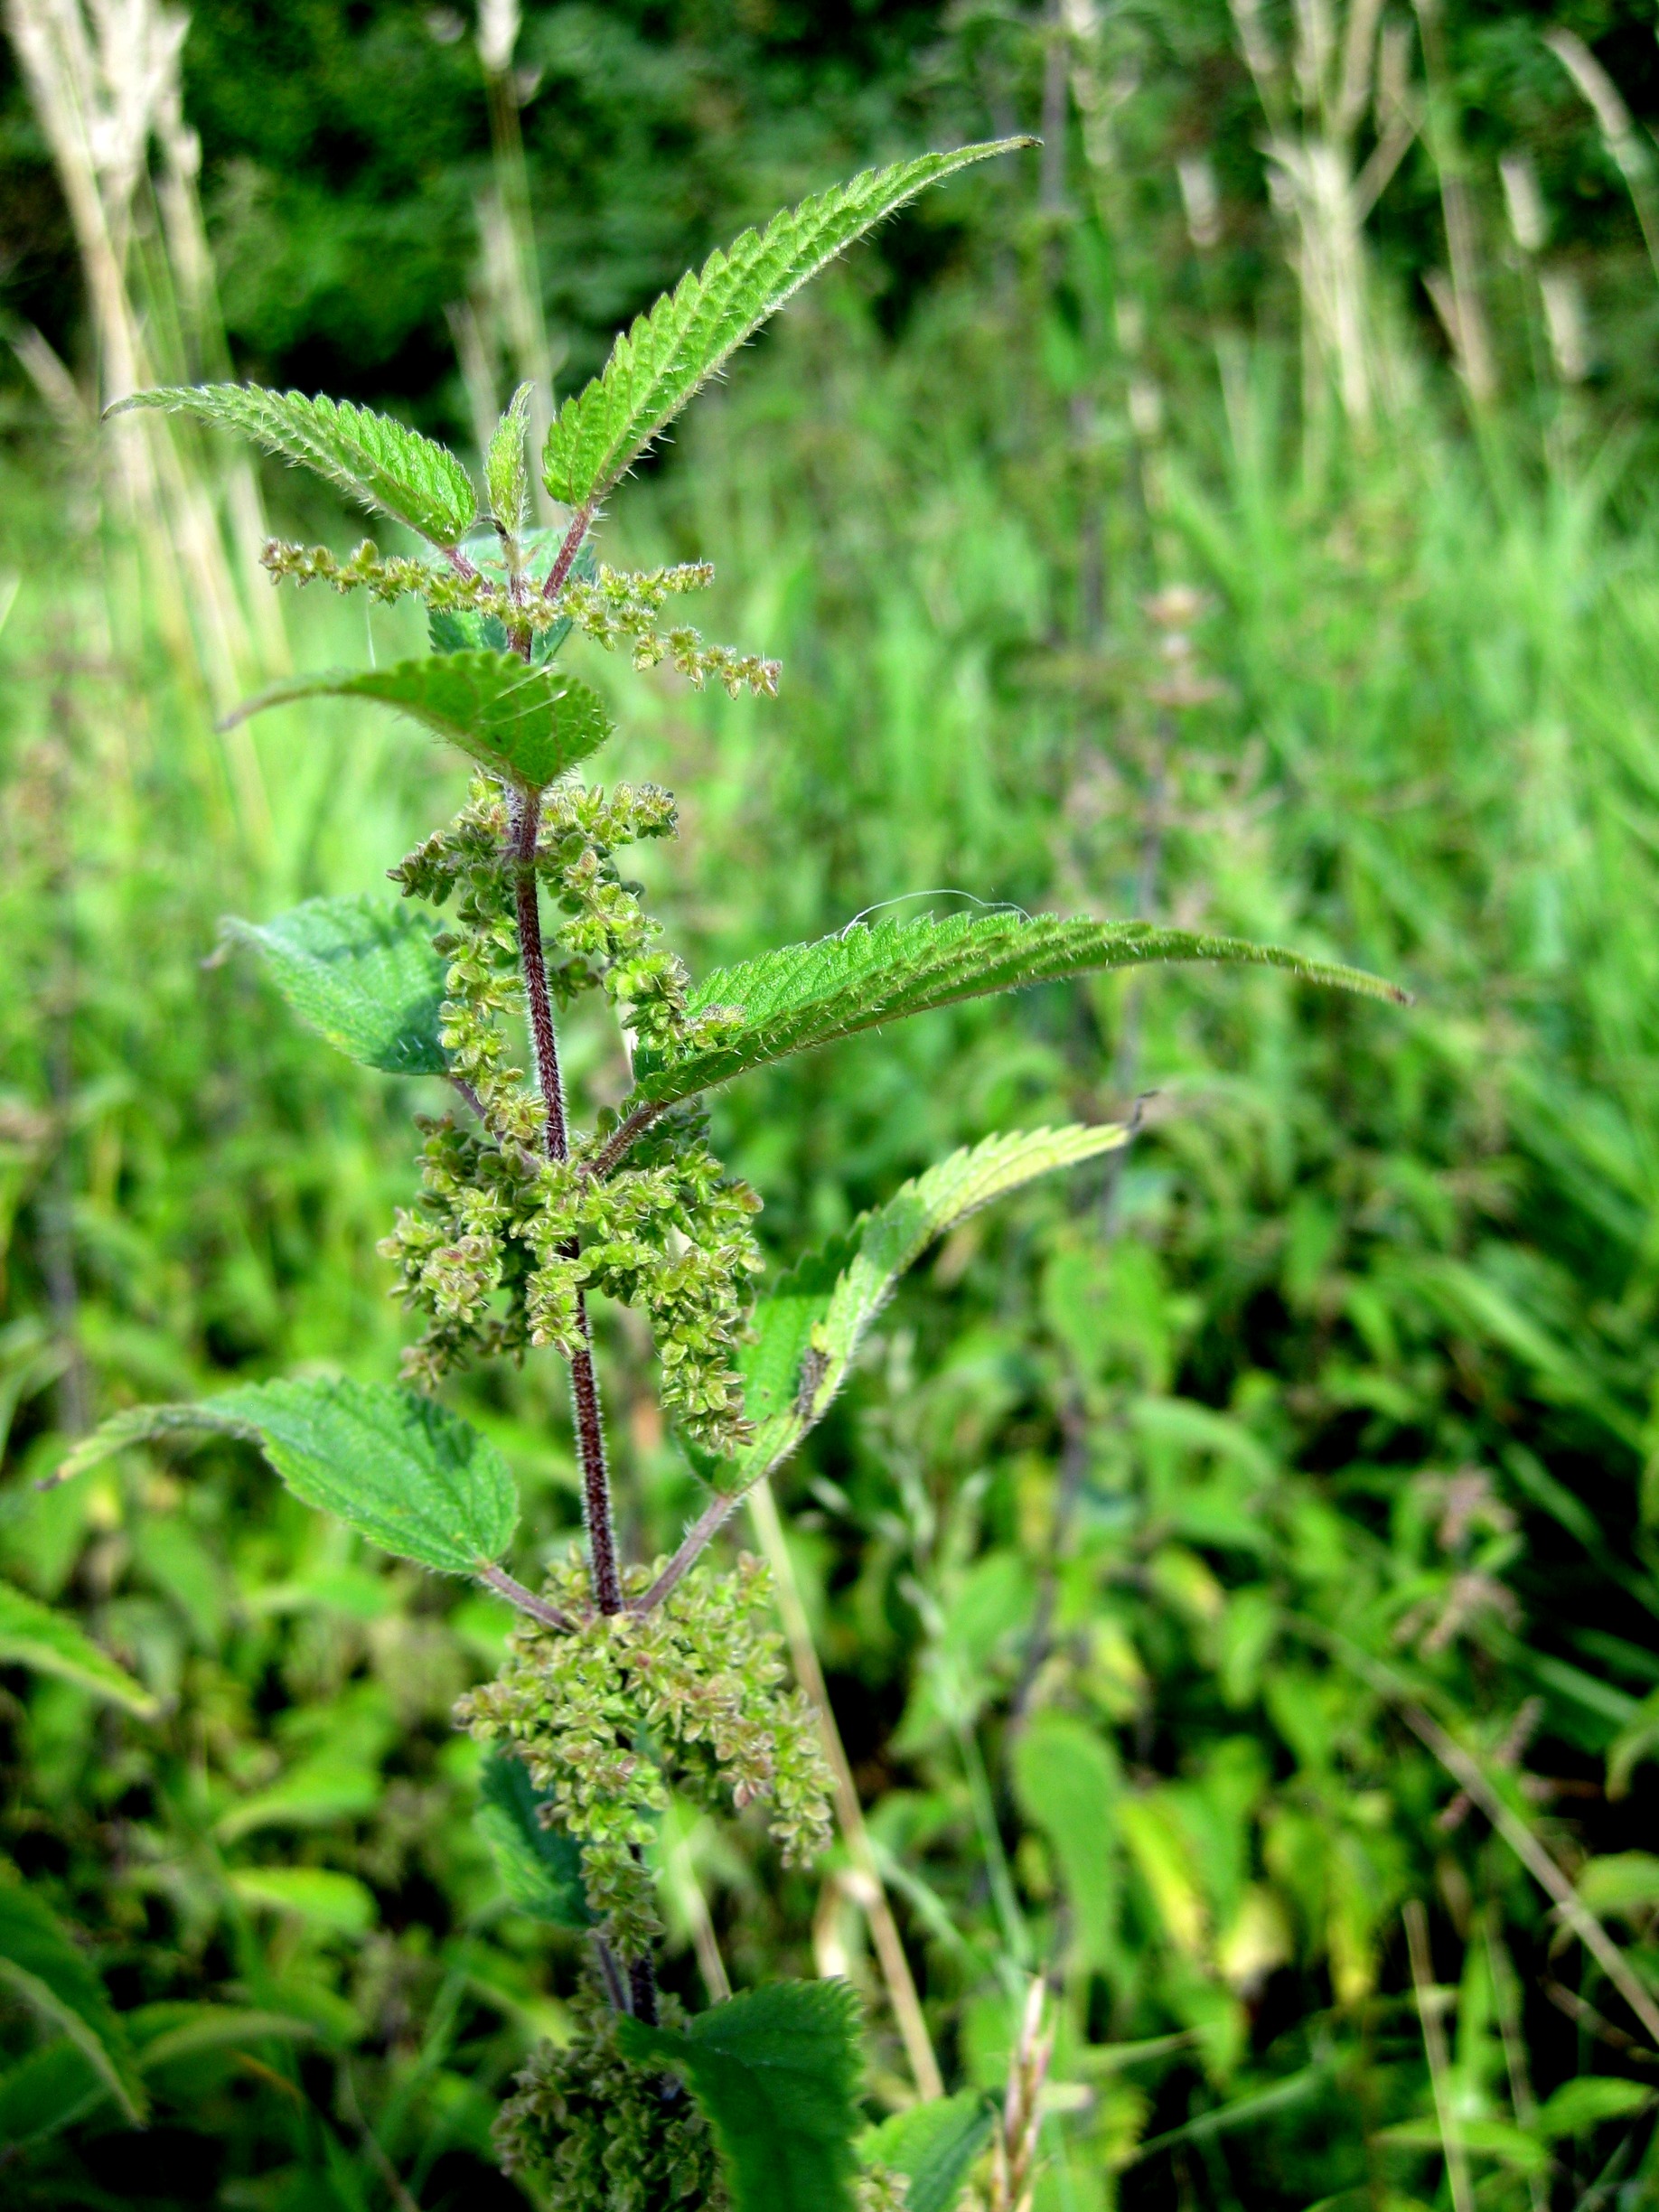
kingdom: Plantae
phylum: Tracheophyta
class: Magnoliopsida
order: Rosales
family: Urticaceae
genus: Urtica
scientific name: Urtica dioica
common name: Stor nælde
